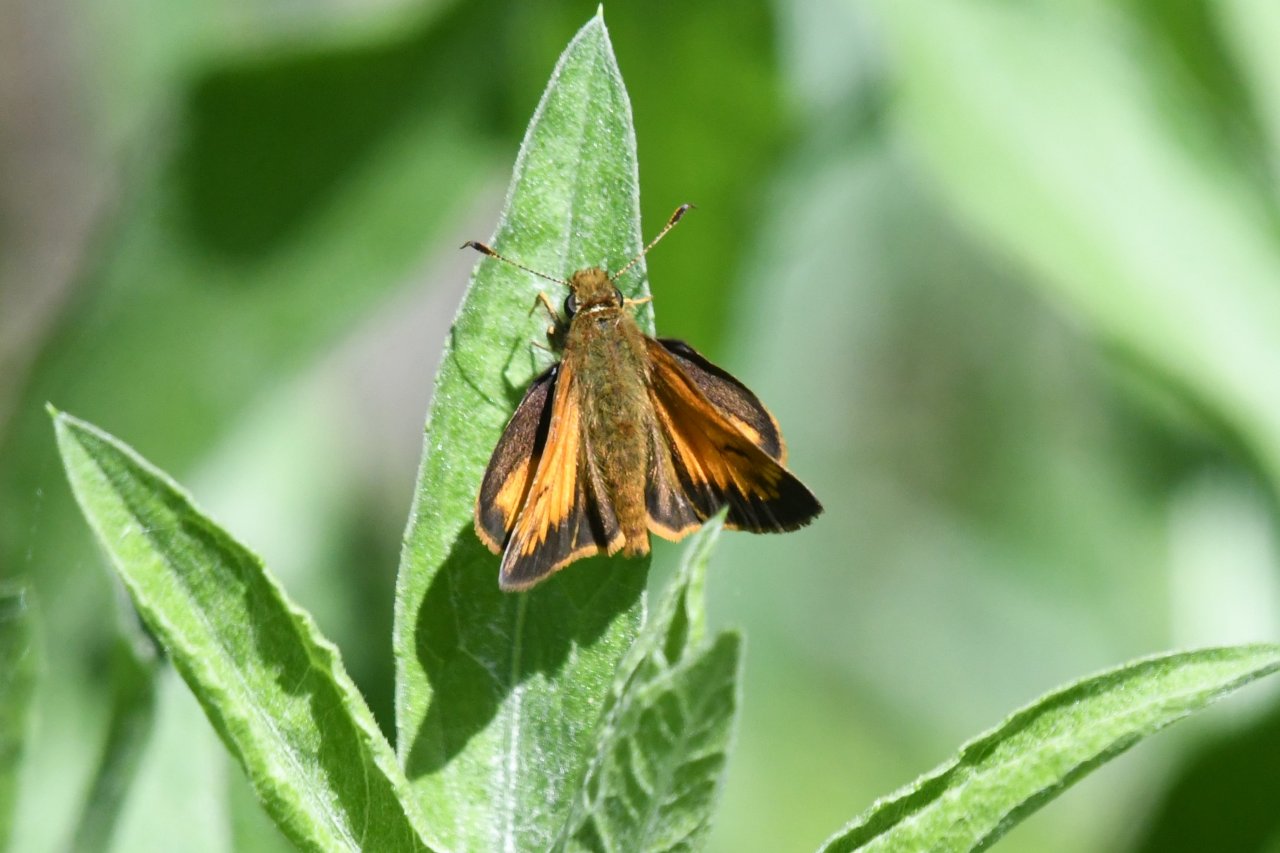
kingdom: Animalia
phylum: Arthropoda
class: Insecta
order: Lepidoptera
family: Hesperiidae
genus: Lon
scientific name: Lon hobomok
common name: Hobomok Skipper
